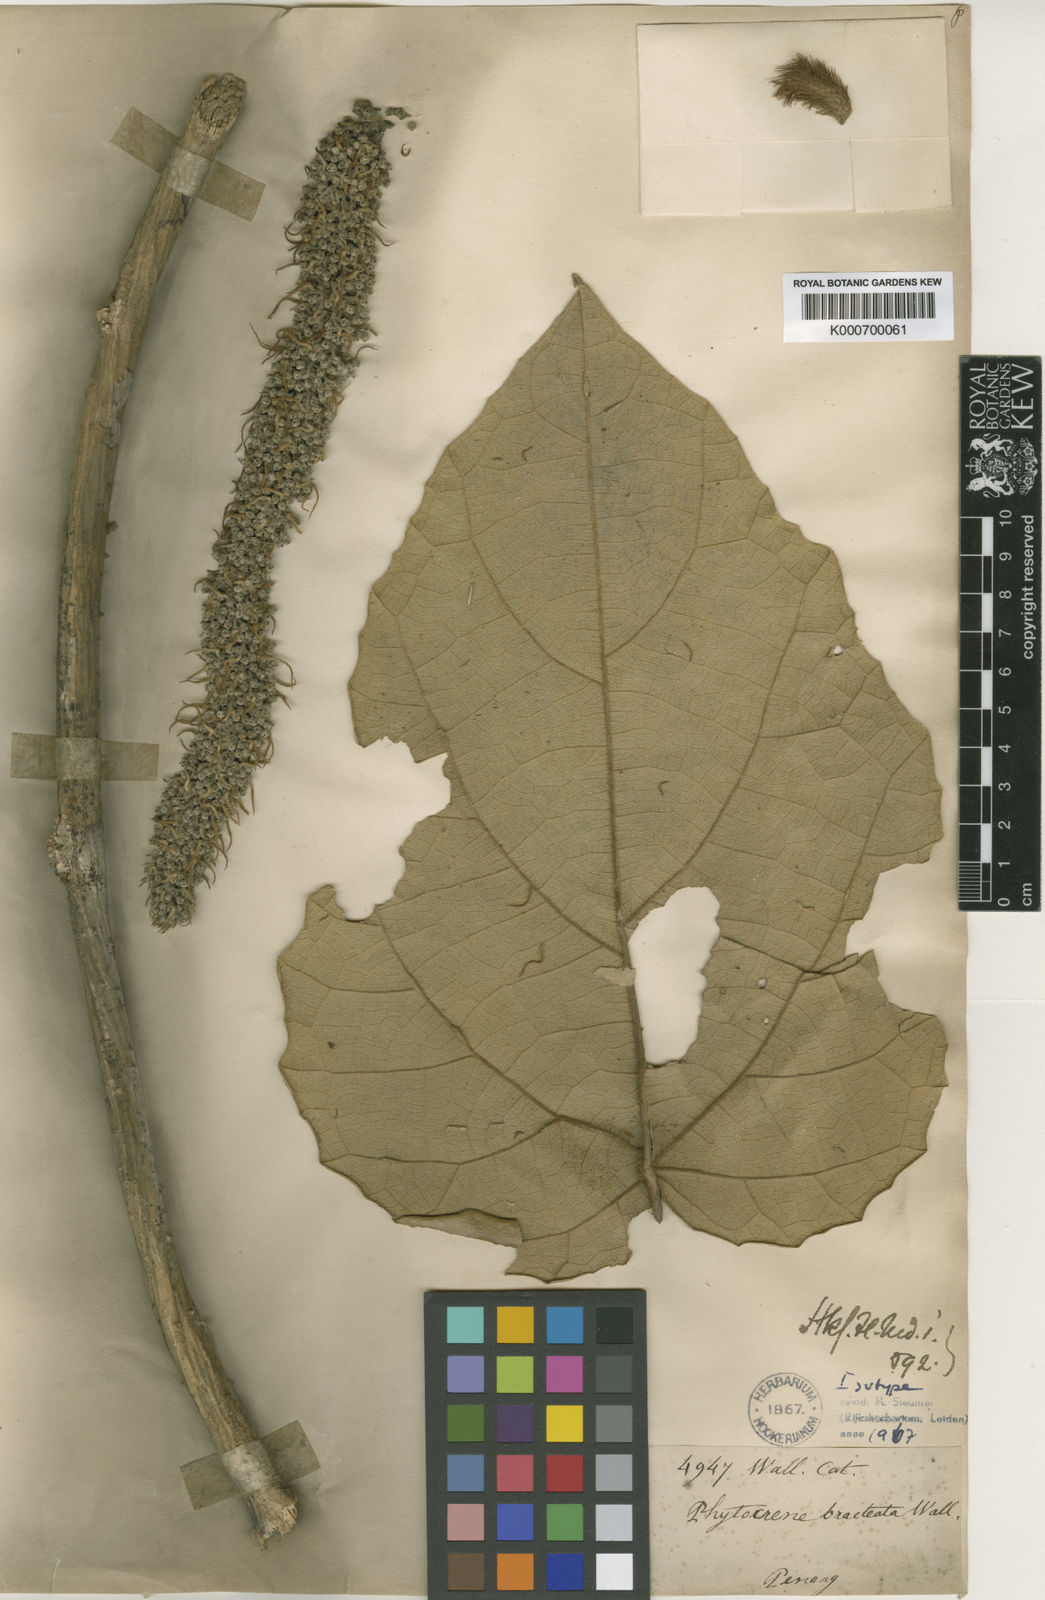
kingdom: Plantae
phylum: Tracheophyta
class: Magnoliopsida
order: Icacinales
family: Icacinaceae
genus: Phytocrene
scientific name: Phytocrene bracteata
